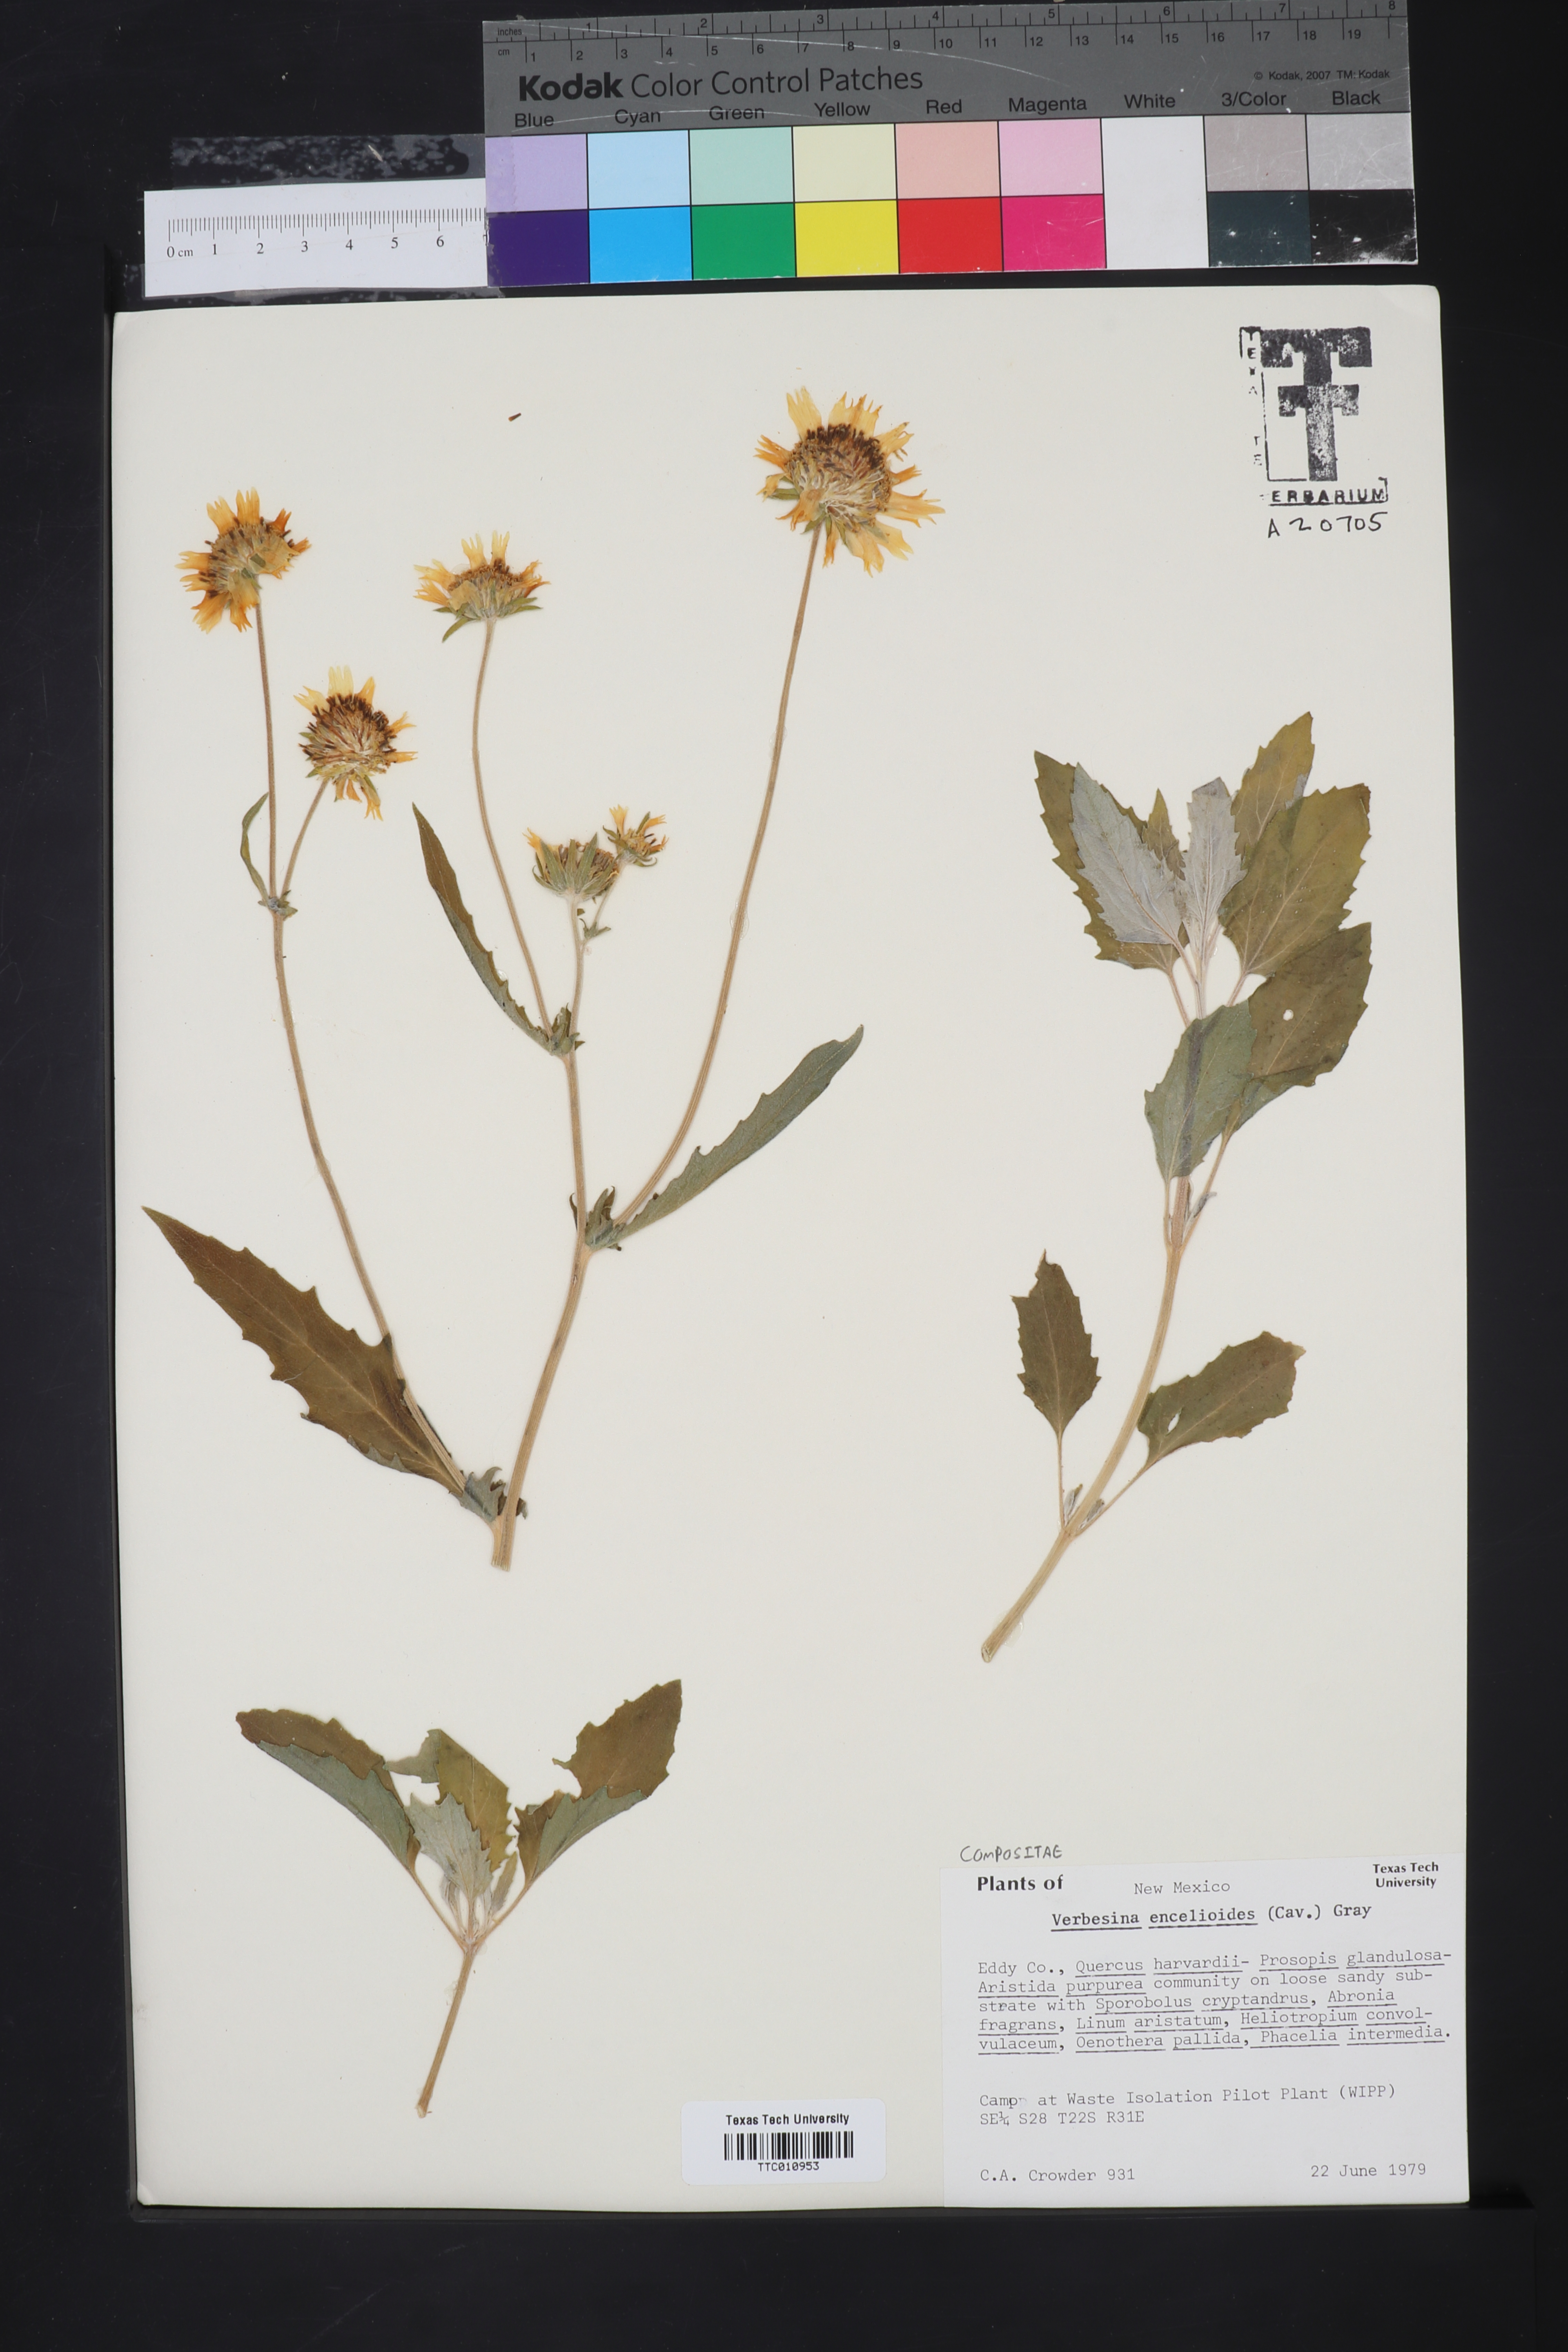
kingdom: Plantae
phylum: Tracheophyta
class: Magnoliopsida
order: Asterales
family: Asteraceae
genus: Verbesina
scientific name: Verbesina encelioides
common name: Golden crownbeard
